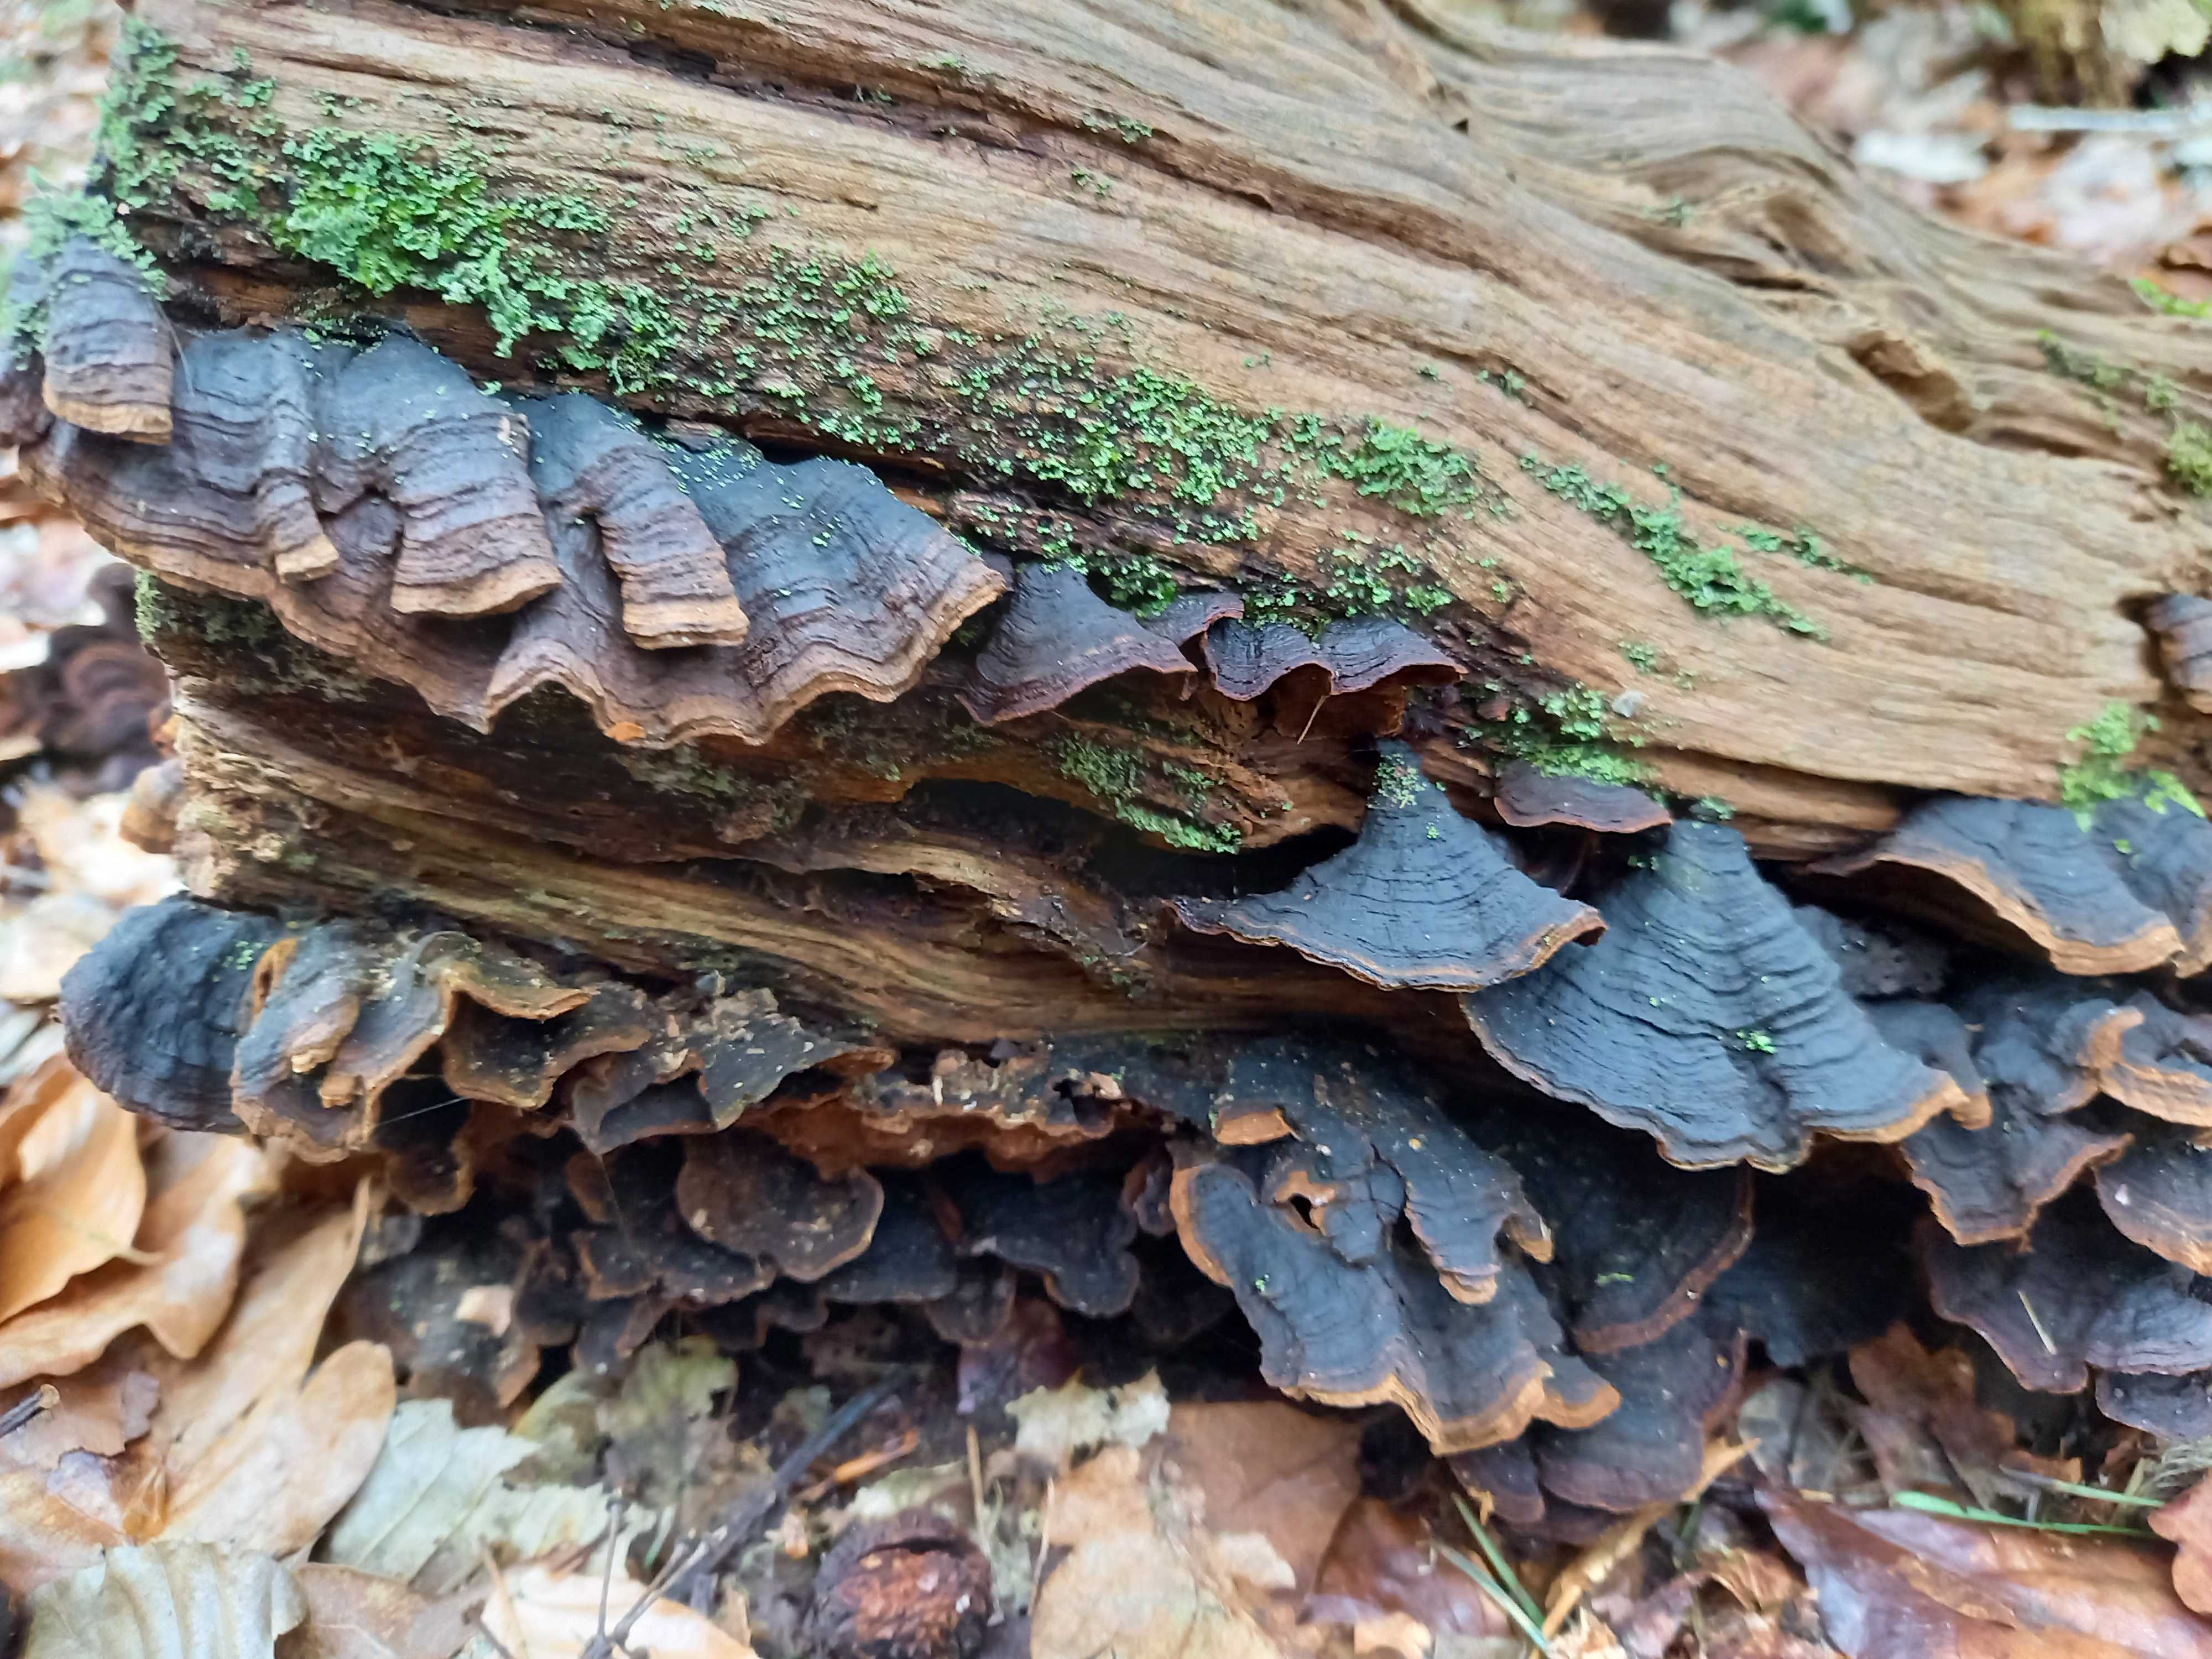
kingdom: Fungi
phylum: Basidiomycota
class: Agaricomycetes
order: Hymenochaetales
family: Hymenochaetaceae
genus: Hymenochaete
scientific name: Hymenochaete rubiginosa
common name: stiv ruslædersvamp
